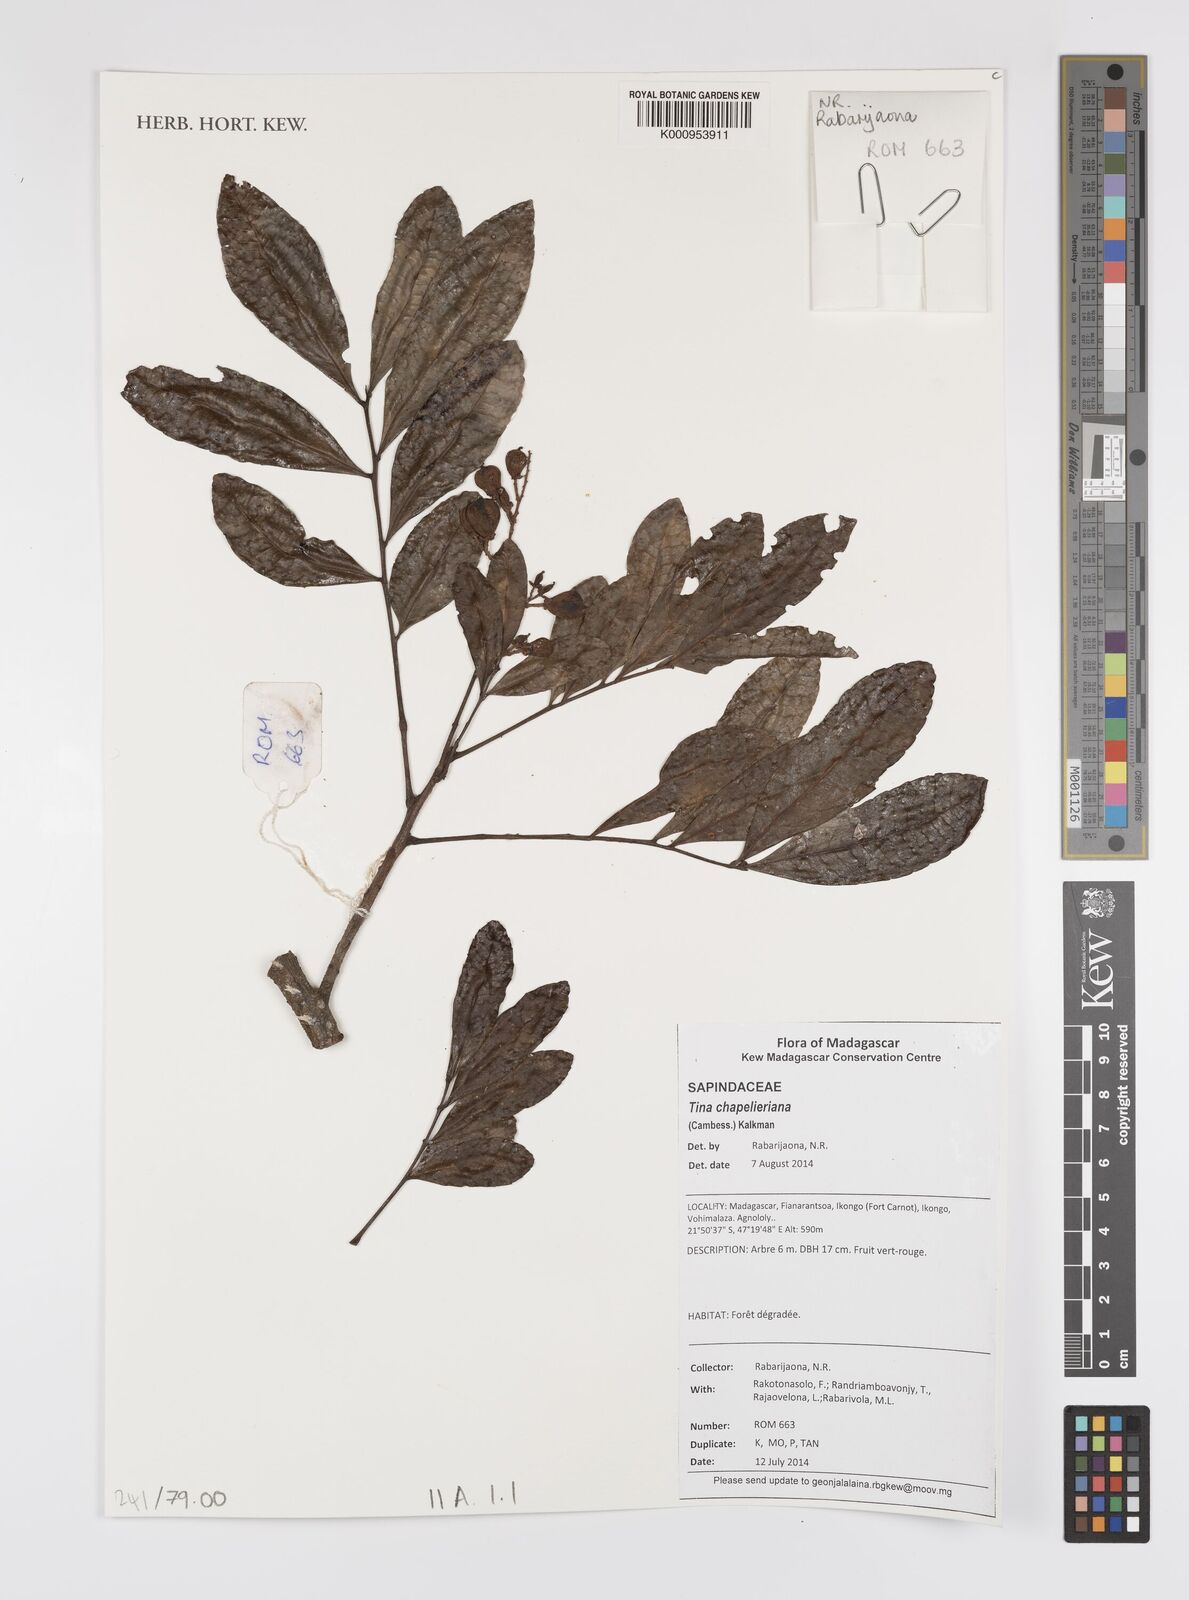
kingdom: Plantae
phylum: Tracheophyta
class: Magnoliopsida
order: Sapindales
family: Sapindaceae
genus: Tina
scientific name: Tina chapelieriana
